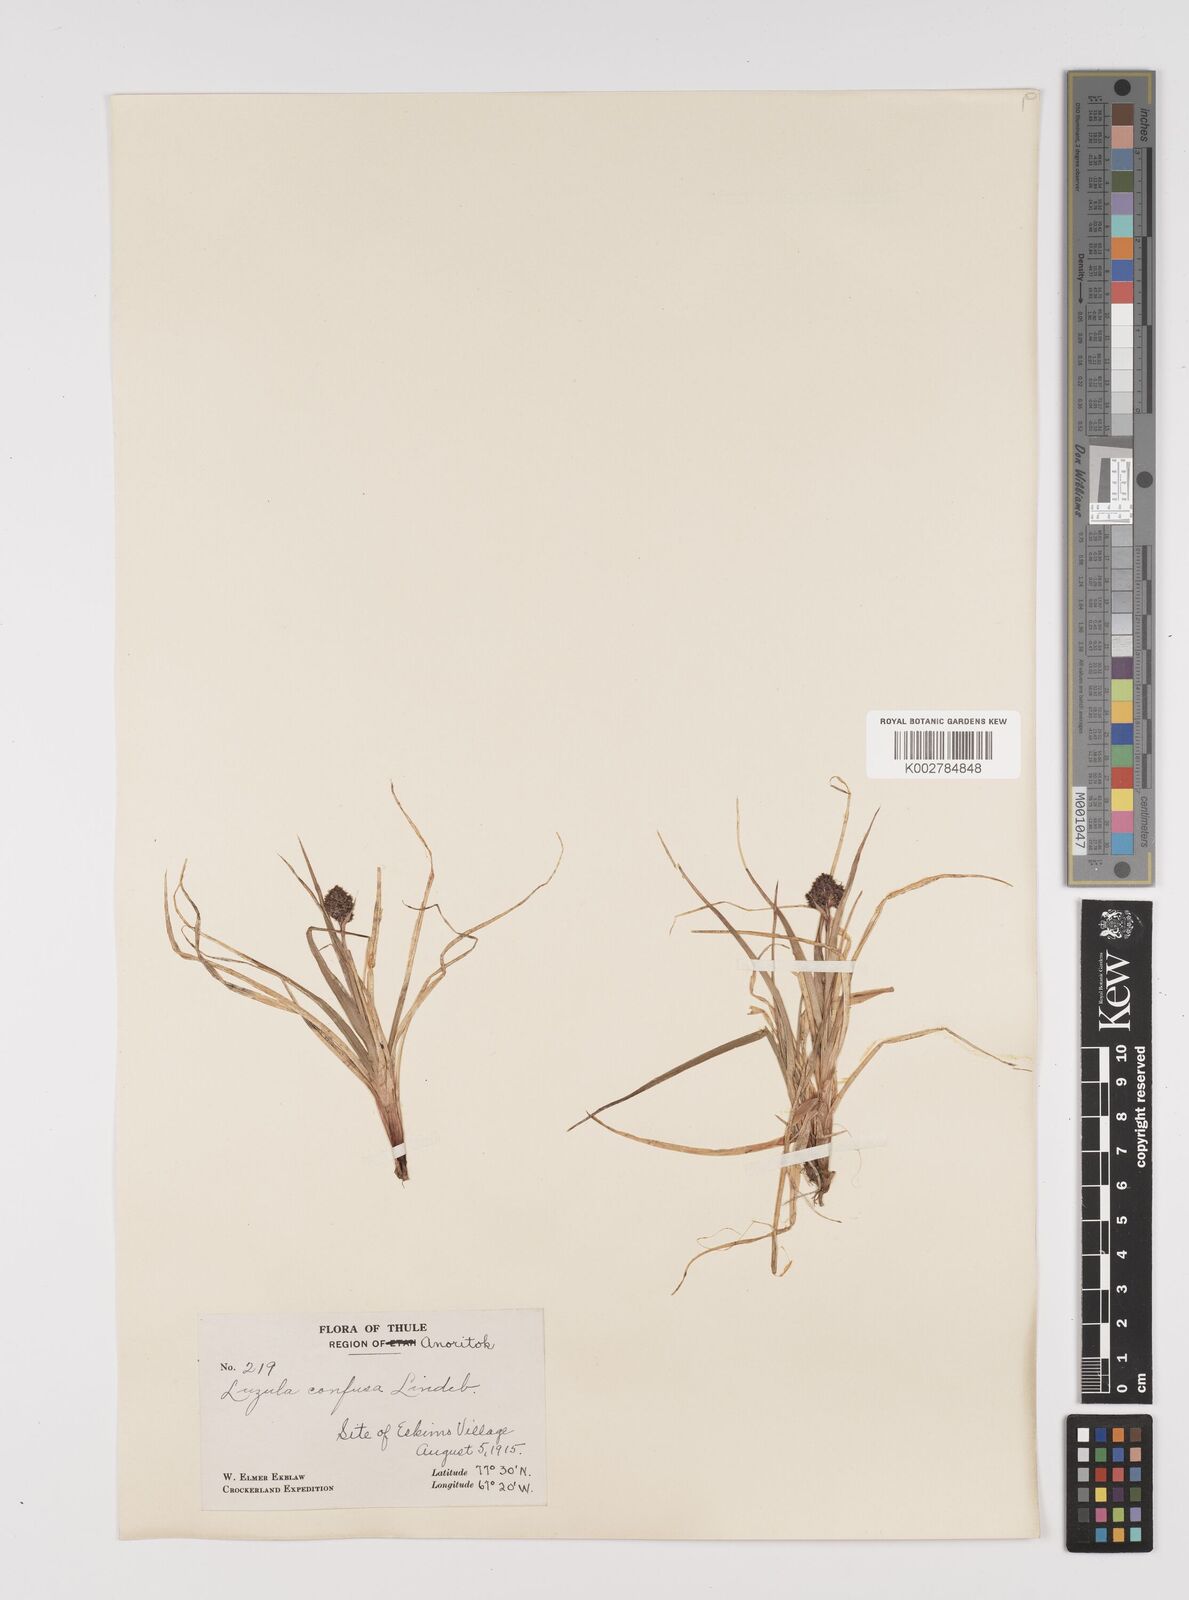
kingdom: Plantae
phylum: Tracheophyta
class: Liliopsida
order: Poales
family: Juncaceae
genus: Luzula
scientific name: Luzula confusa
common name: Northern wood rush
